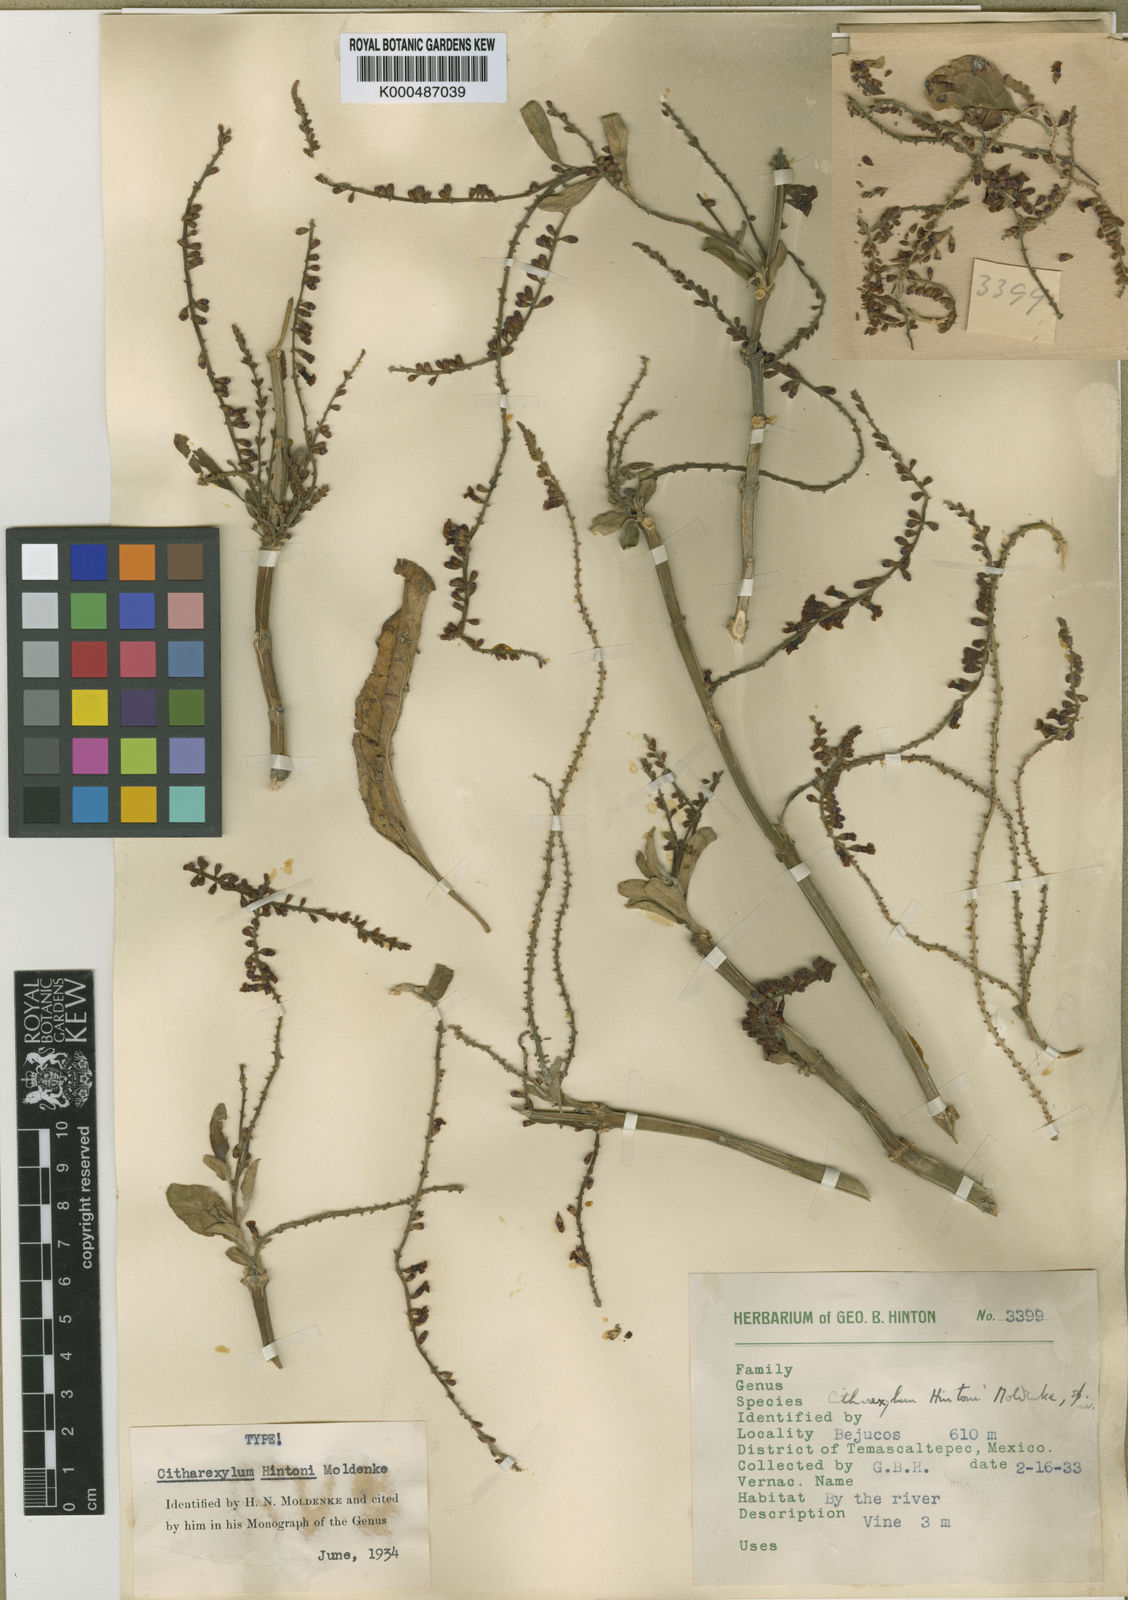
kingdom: Plantae
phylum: Tracheophyta
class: Magnoliopsida
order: Lamiales
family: Verbenaceae
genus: Citharexylum
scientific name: Citharexylum hintonii
